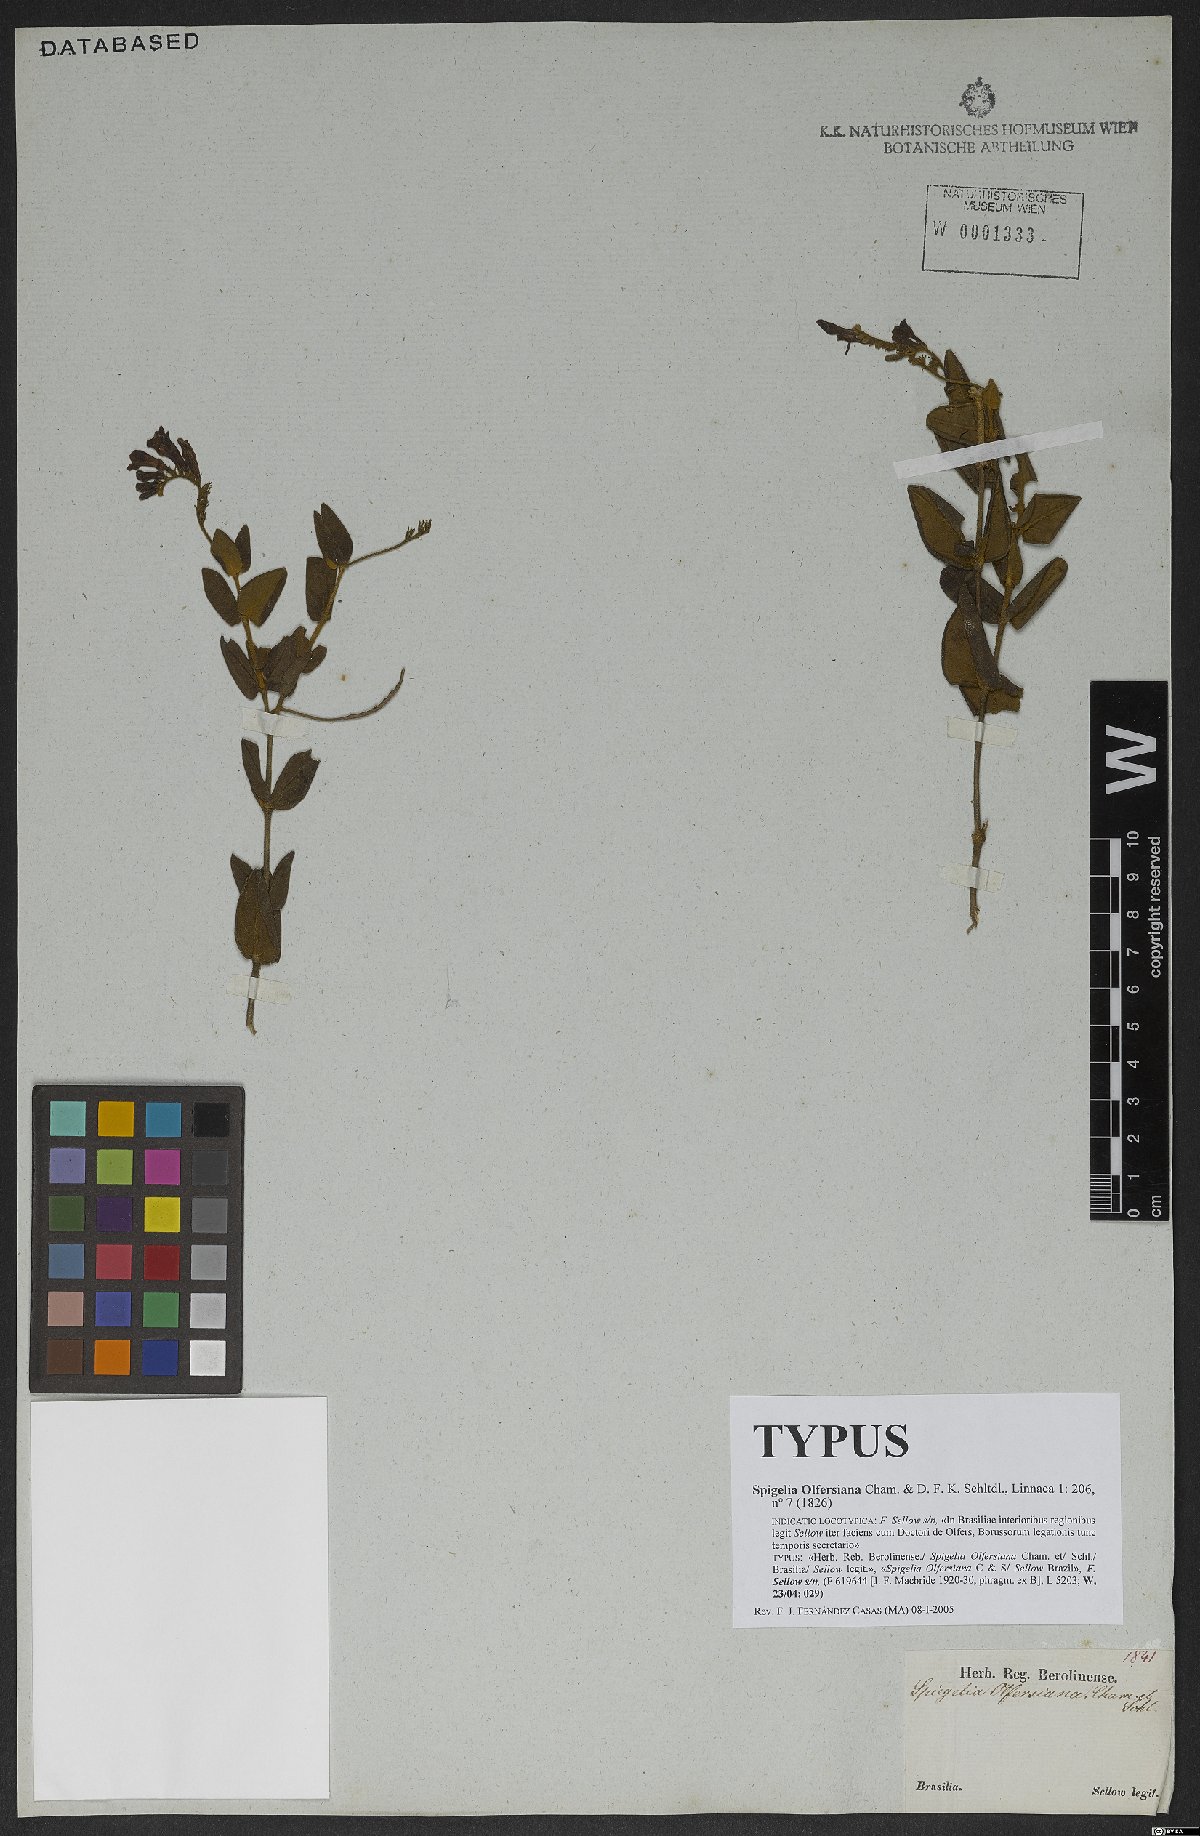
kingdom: Plantae
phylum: Tracheophyta
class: Magnoliopsida
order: Gentianales
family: Loganiaceae
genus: Spigelia
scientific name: Spigelia olfersiana
